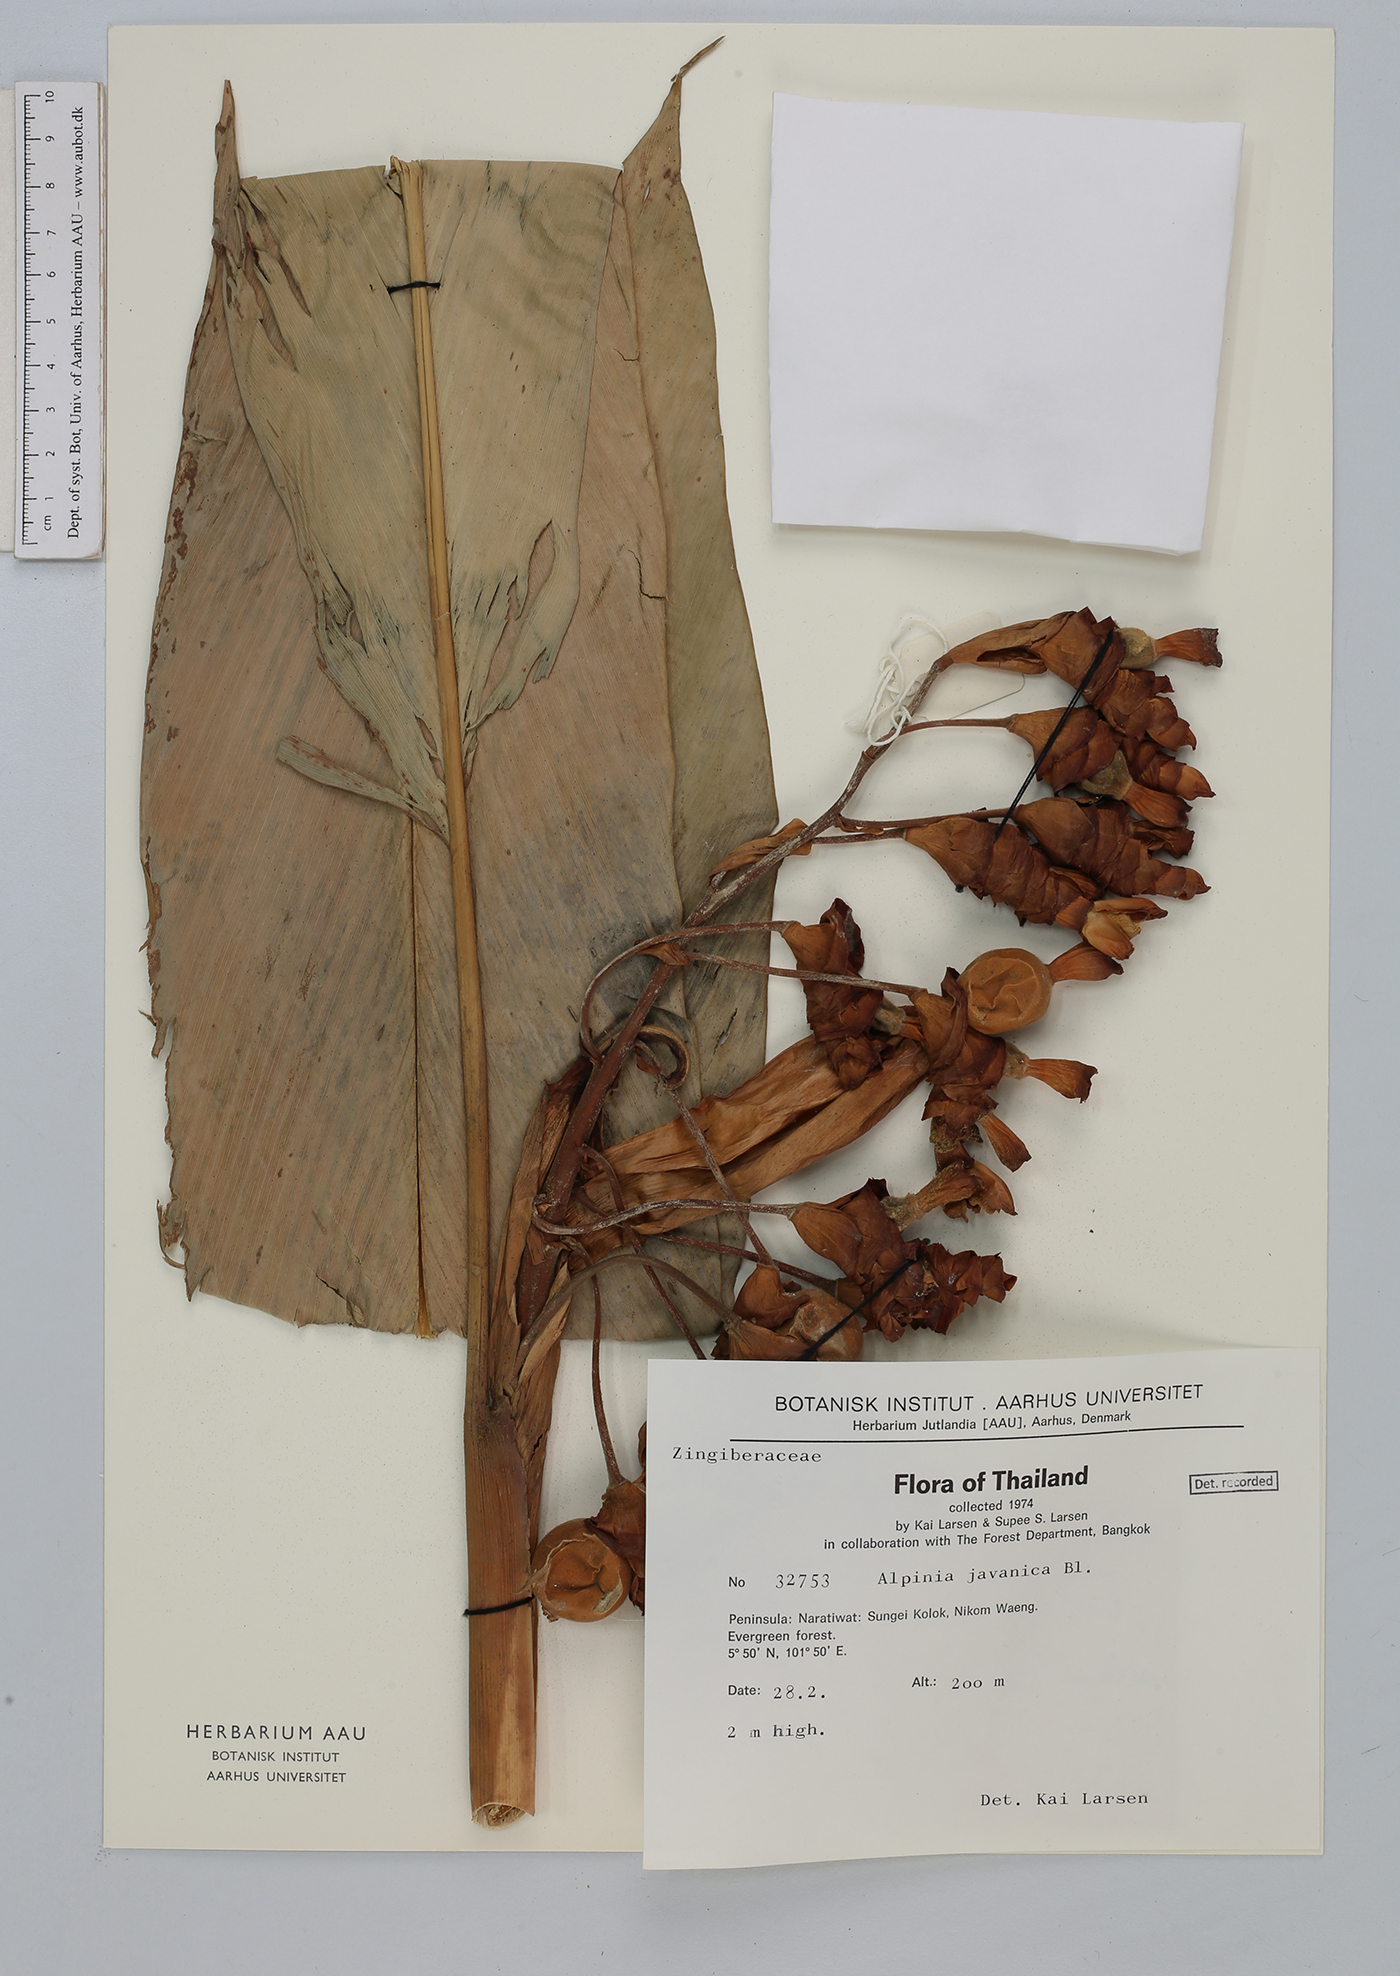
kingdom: Plantae
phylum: Tracheophyta
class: Liliopsida
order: Zingiberales
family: Zingiberaceae
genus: Alpinia
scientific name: Alpinia javanica
